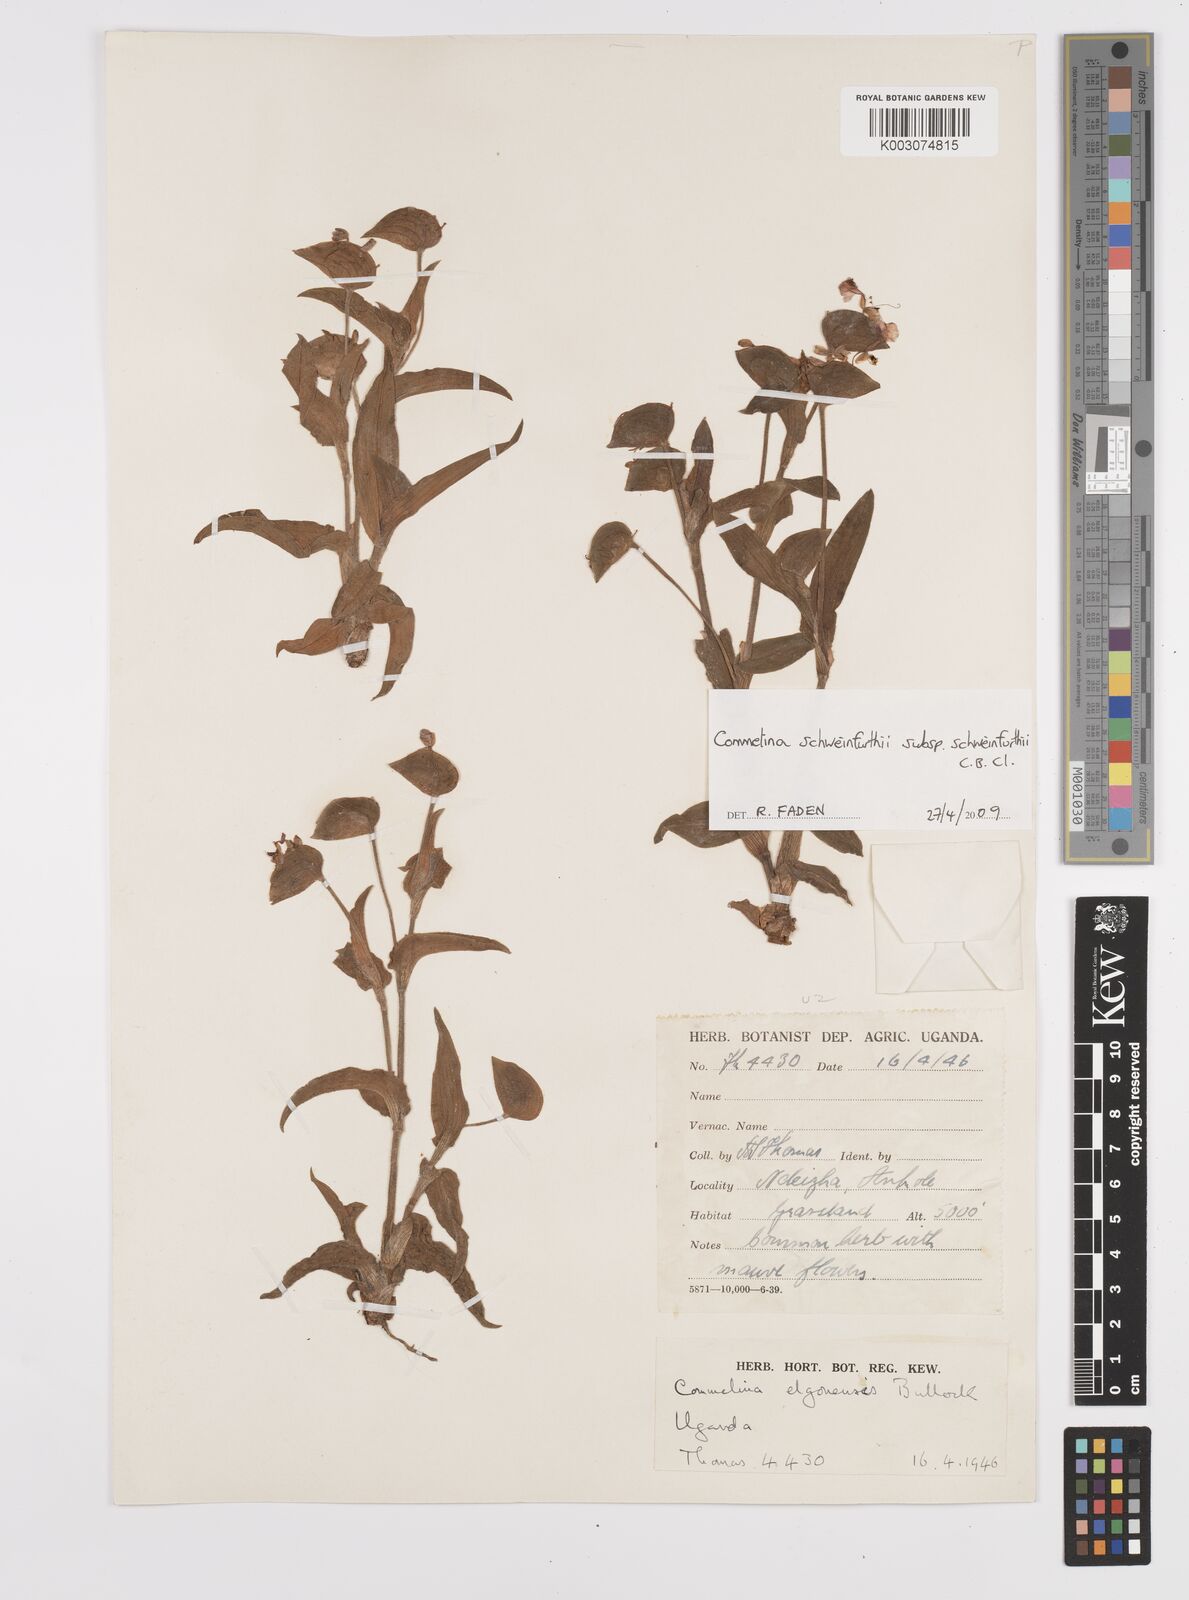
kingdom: Plantae
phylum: Tracheophyta
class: Liliopsida
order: Commelinales
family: Commelinaceae
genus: Commelina
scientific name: Commelina schweinfurthii
